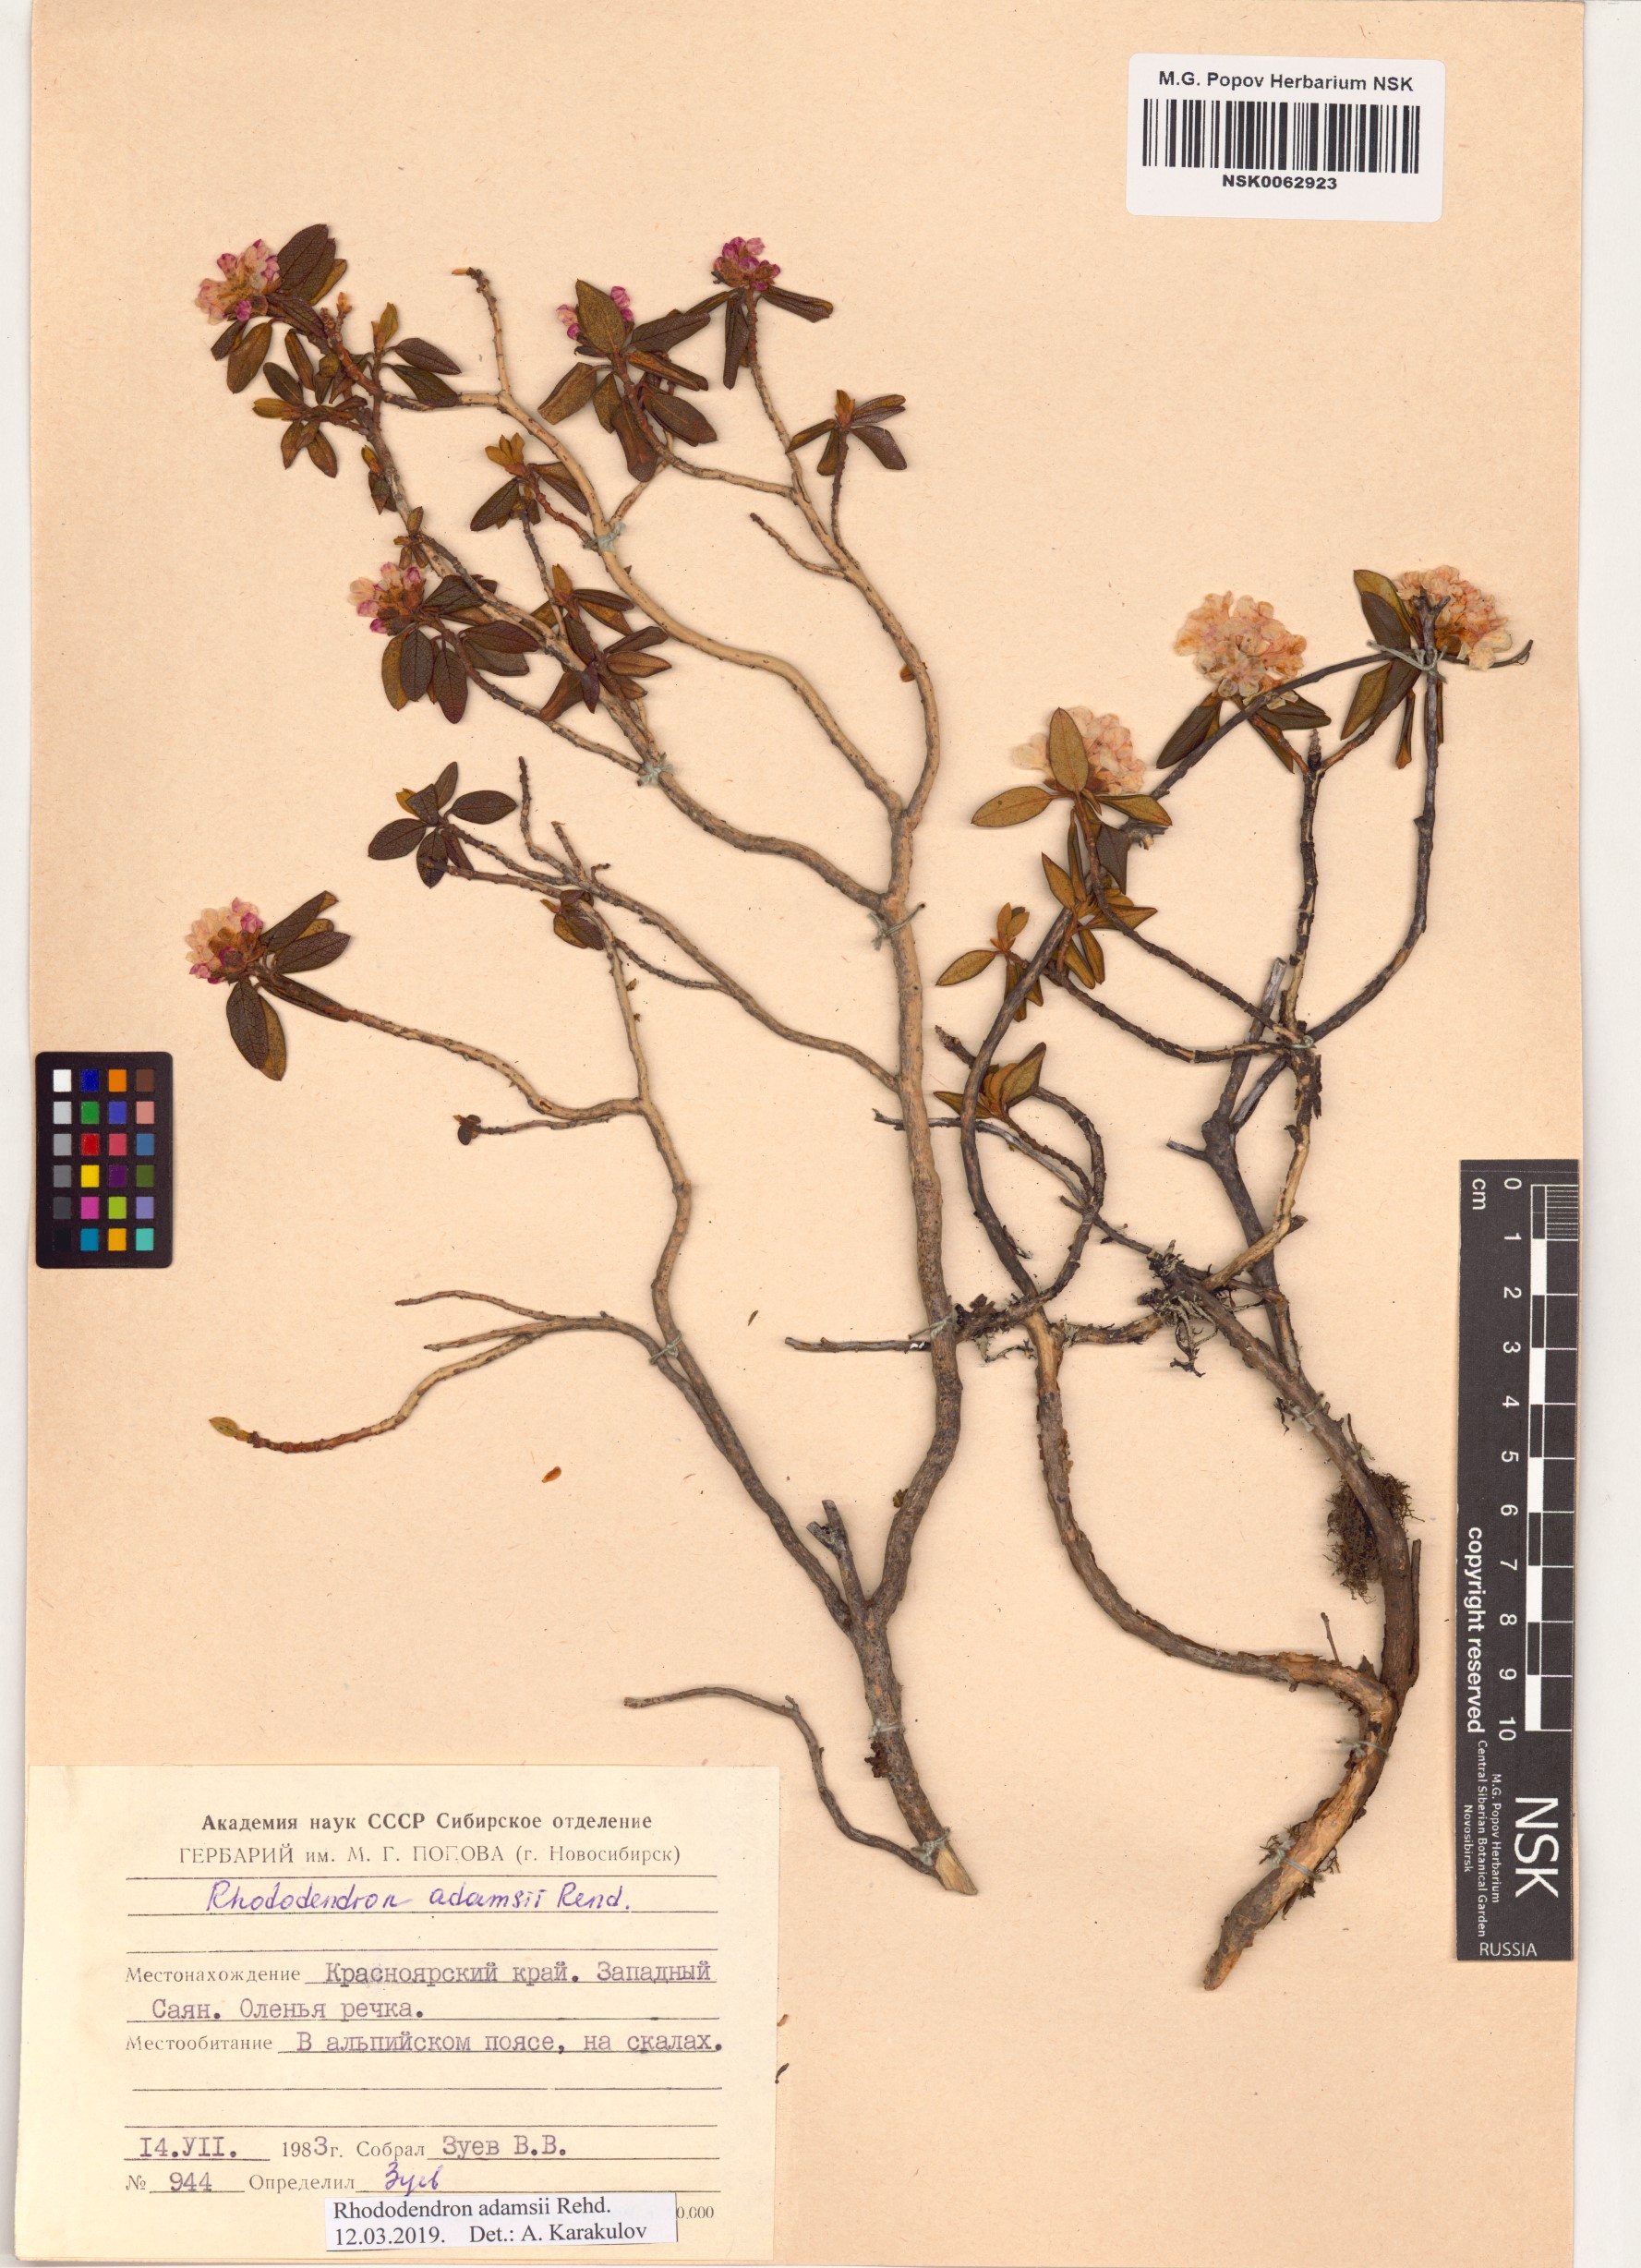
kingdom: Plantae
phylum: Tracheophyta
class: Magnoliopsida
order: Ericales
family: Ericaceae
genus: Rhododendron
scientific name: Rhododendron adamsii
